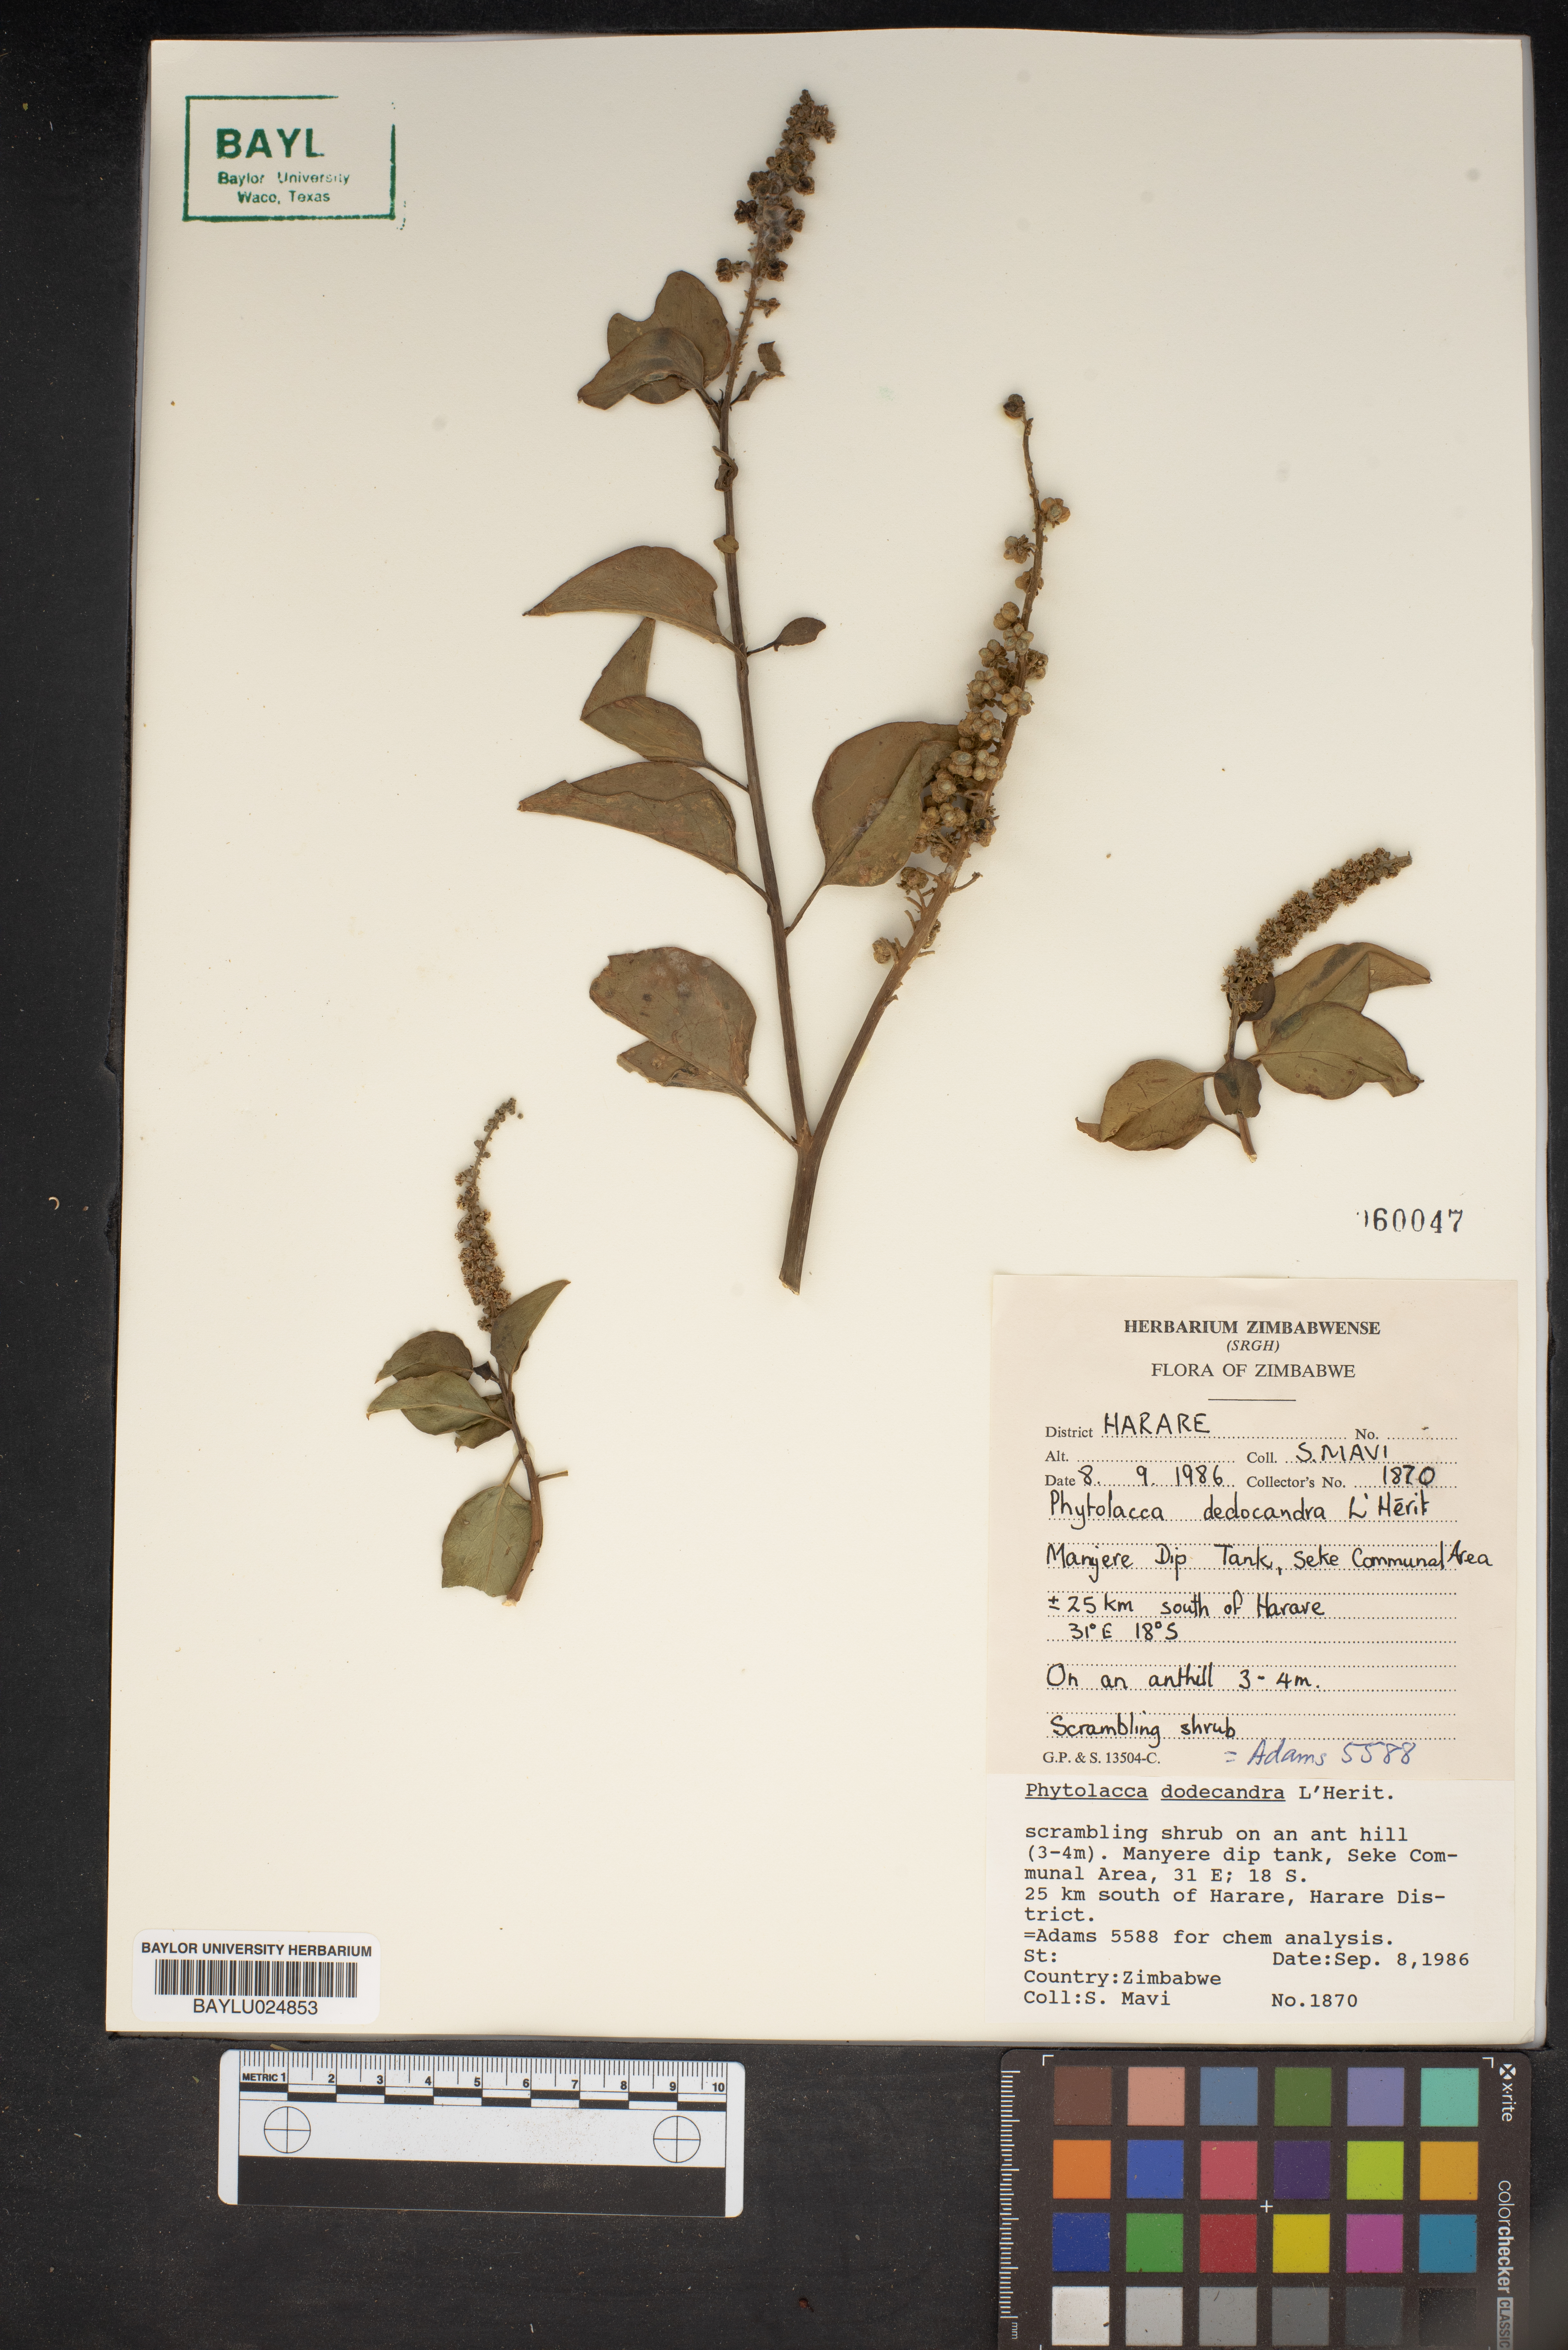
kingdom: Plantae
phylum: Tracheophyta
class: Magnoliopsida
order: Caryophyllales
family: Phytolaccaceae
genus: Phytolacca
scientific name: Phytolacca dodecandra
